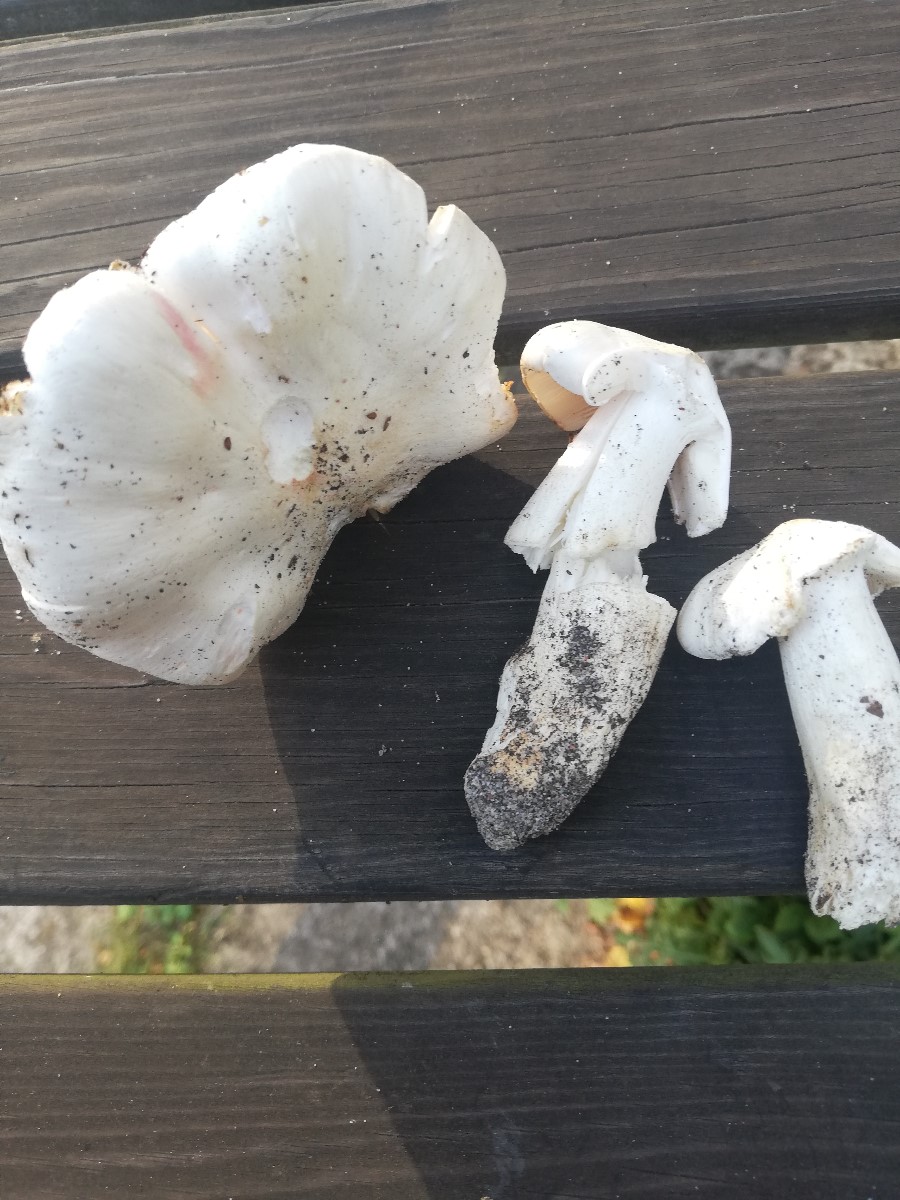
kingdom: Fungi
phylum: Basidiomycota
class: Agaricomycetes
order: Agaricales
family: Tricholomataceae
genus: Tricholoma
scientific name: Tricholoma columbetta
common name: silke-ridderhat
